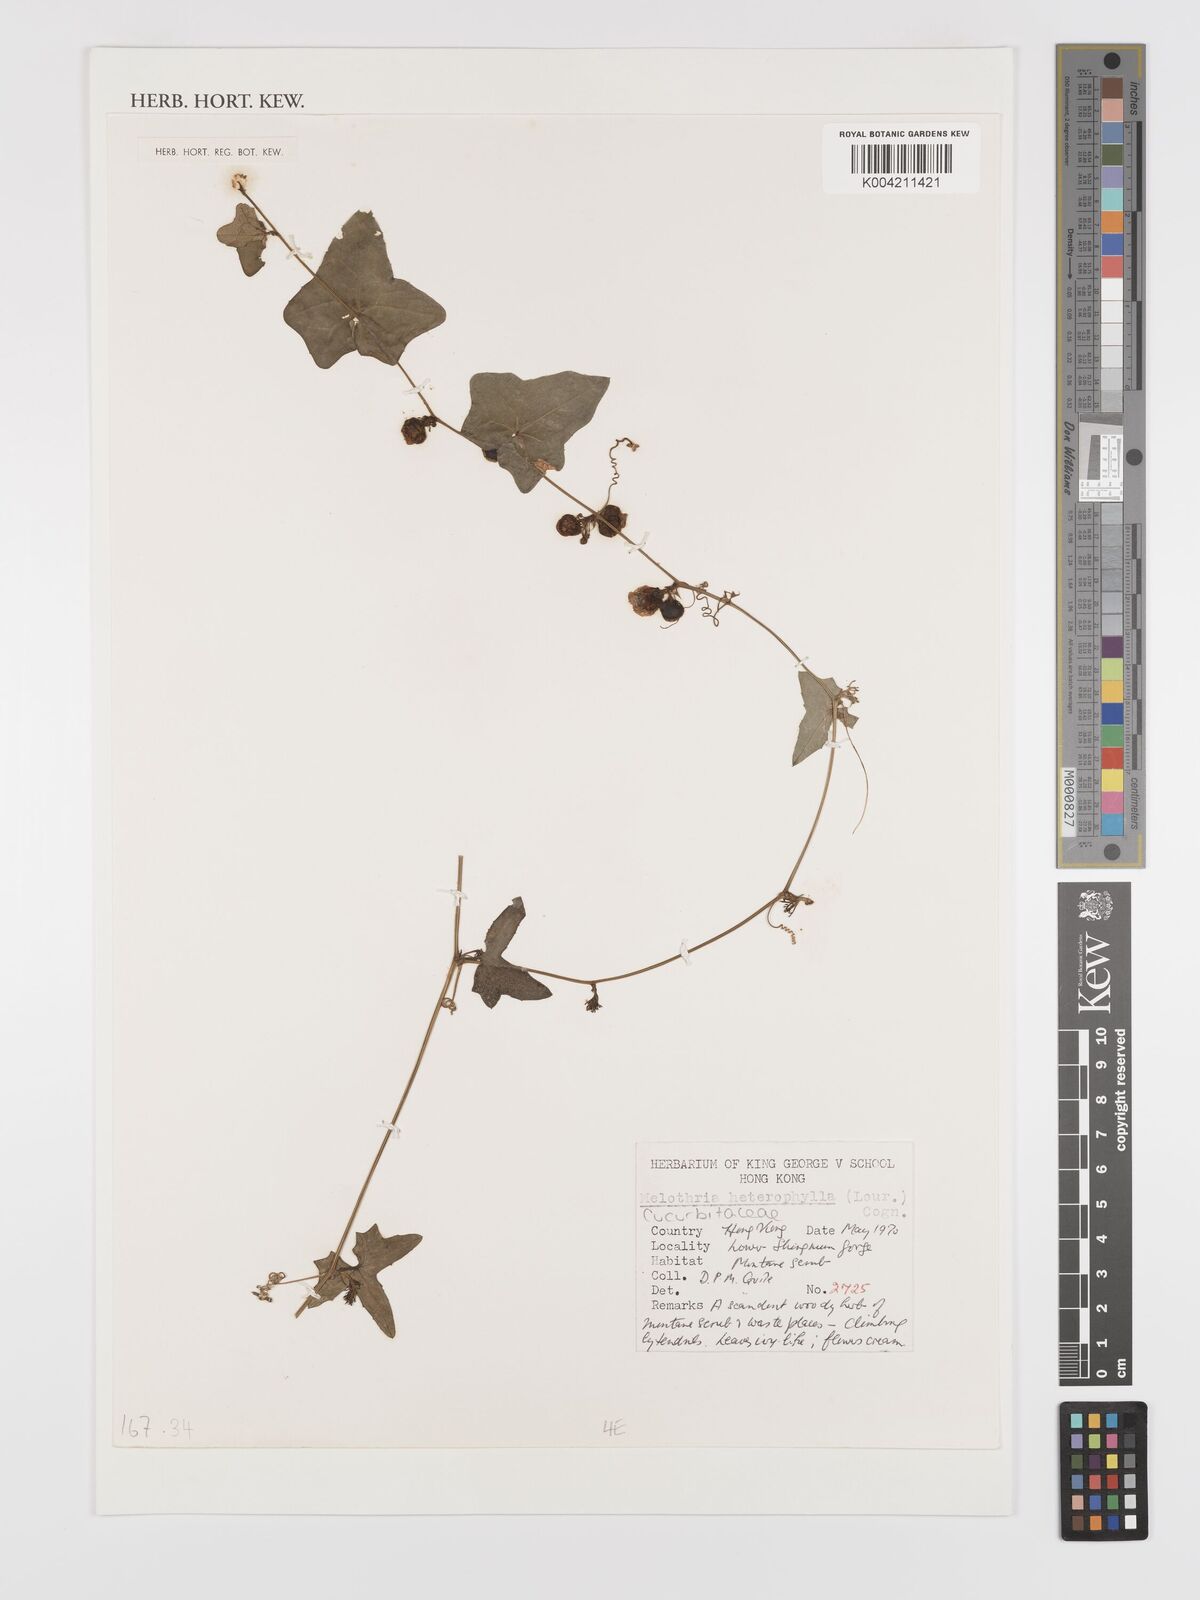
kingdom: Plantae
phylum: Tracheophyta
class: Magnoliopsida
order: Cucurbitales
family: Cucurbitaceae
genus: Solena
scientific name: Solena heterophylla
